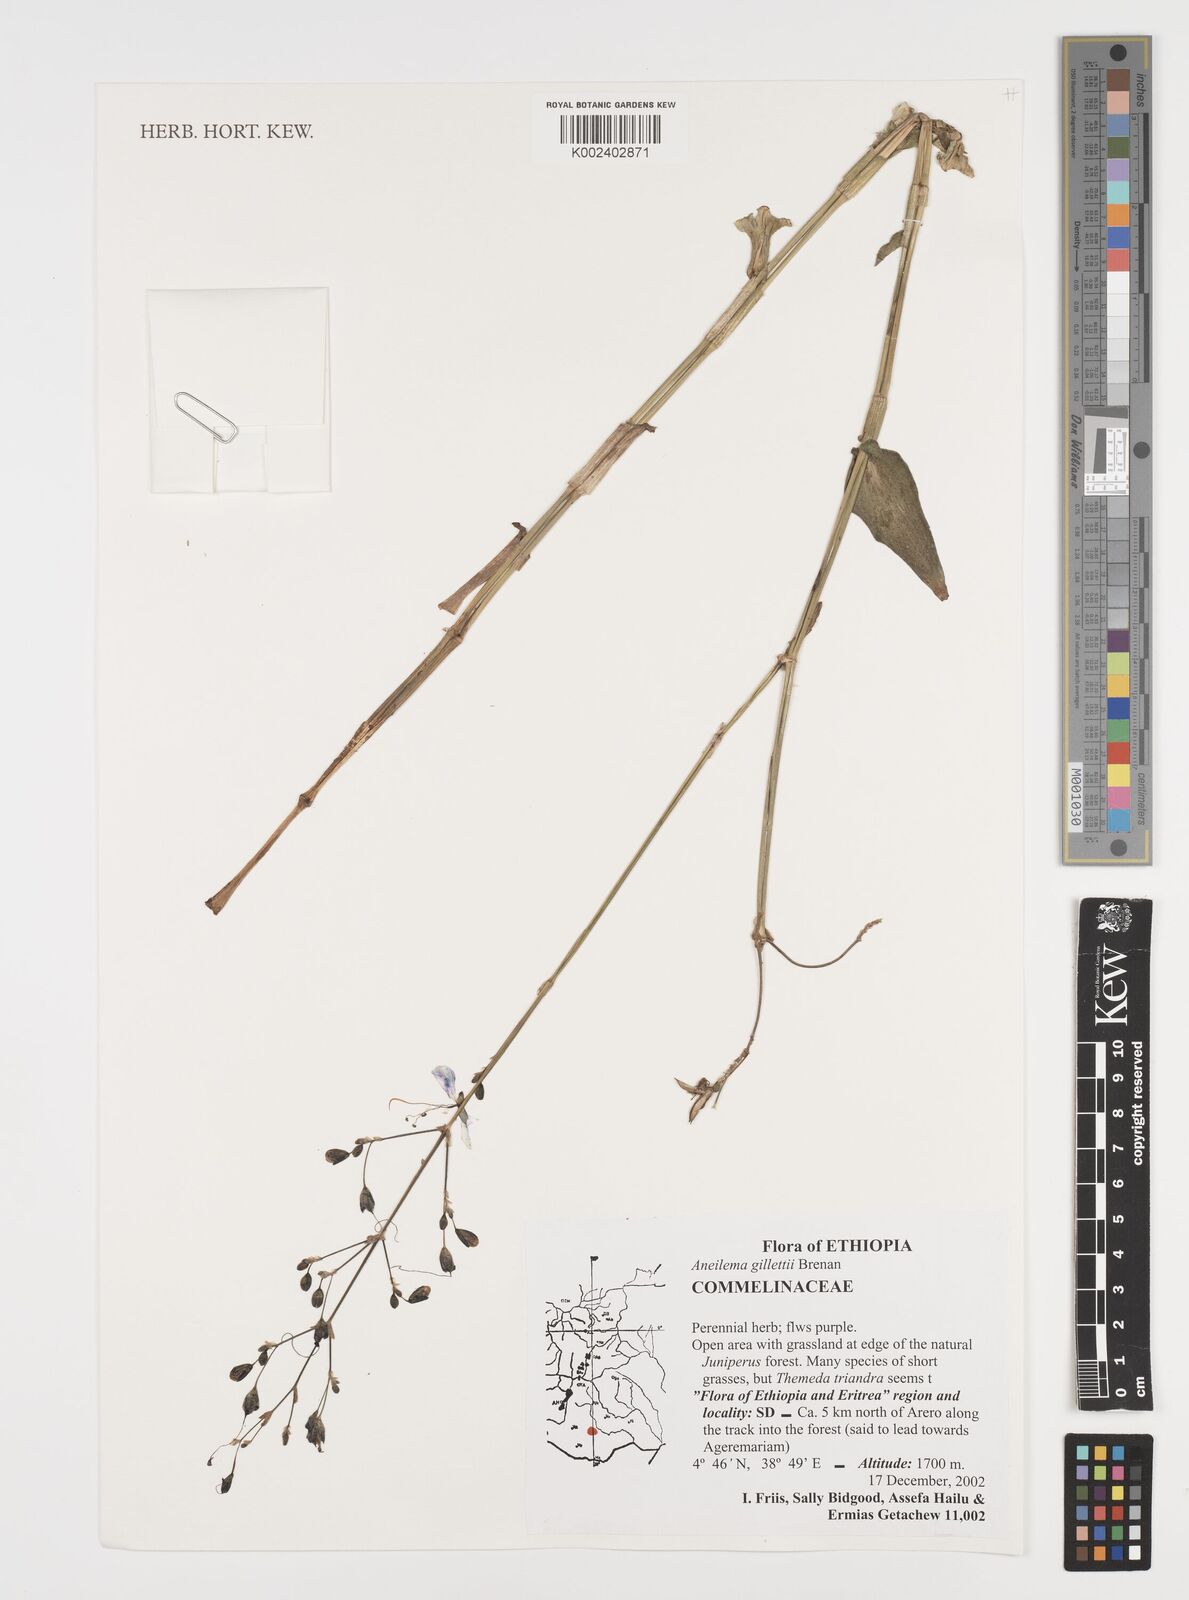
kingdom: Plantae
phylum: Tracheophyta
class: Liliopsida
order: Commelinales
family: Commelinaceae
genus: Aneilema
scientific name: Aneilema gillettii
